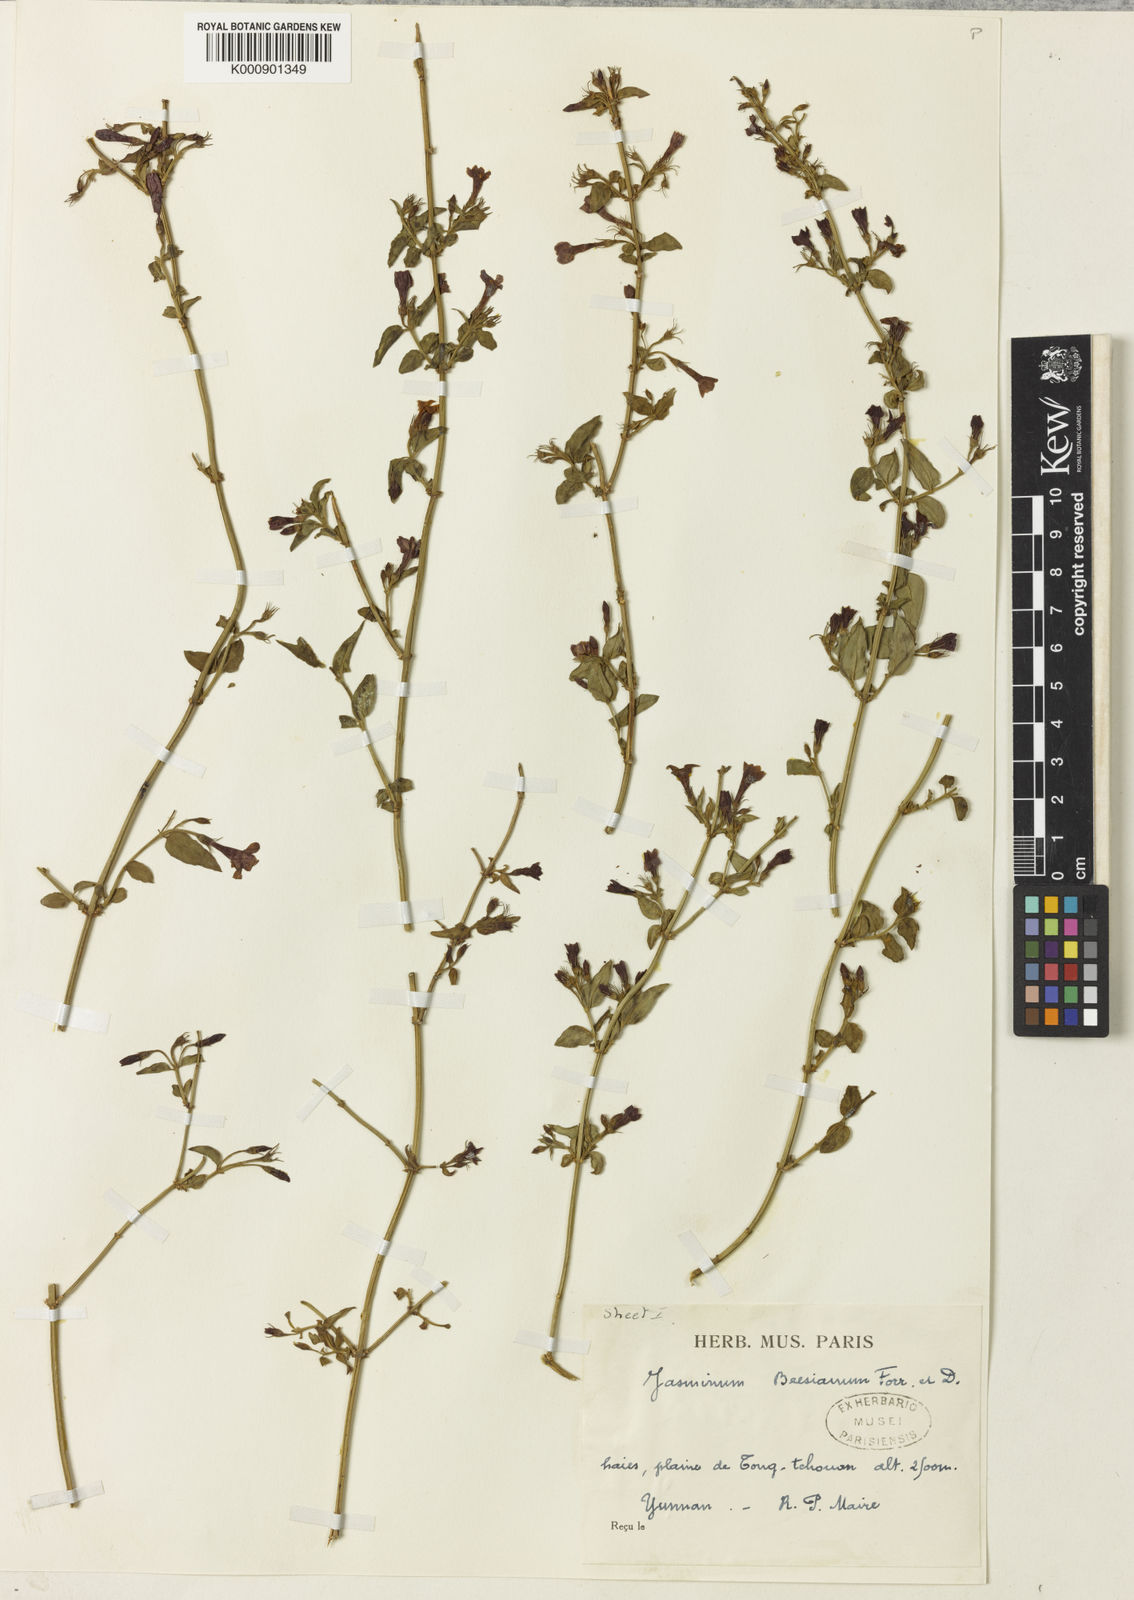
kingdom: Plantae
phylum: Tracheophyta
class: Magnoliopsida
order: Lamiales
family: Oleaceae
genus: Jasminum
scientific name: Jasminum beesianum
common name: Red jasmine
